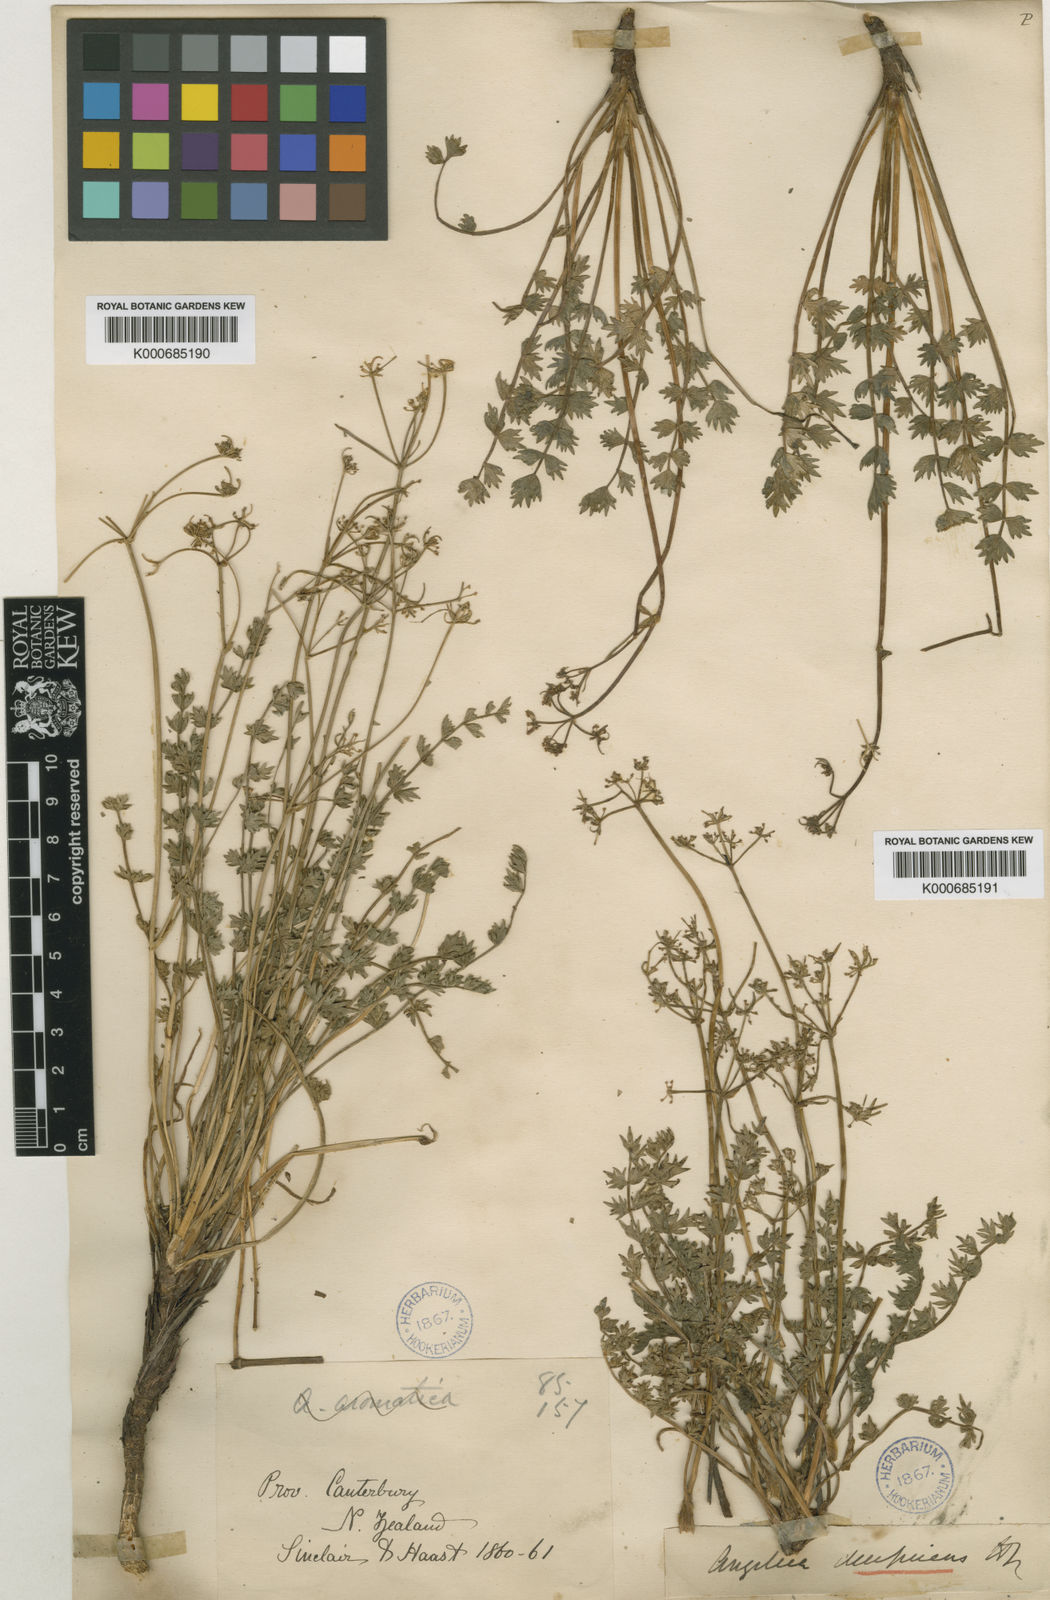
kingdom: Plantae
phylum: Tracheophyta
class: Magnoliopsida
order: Apiales
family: Apiaceae
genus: Gingidia
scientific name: Gingidia decipiens
